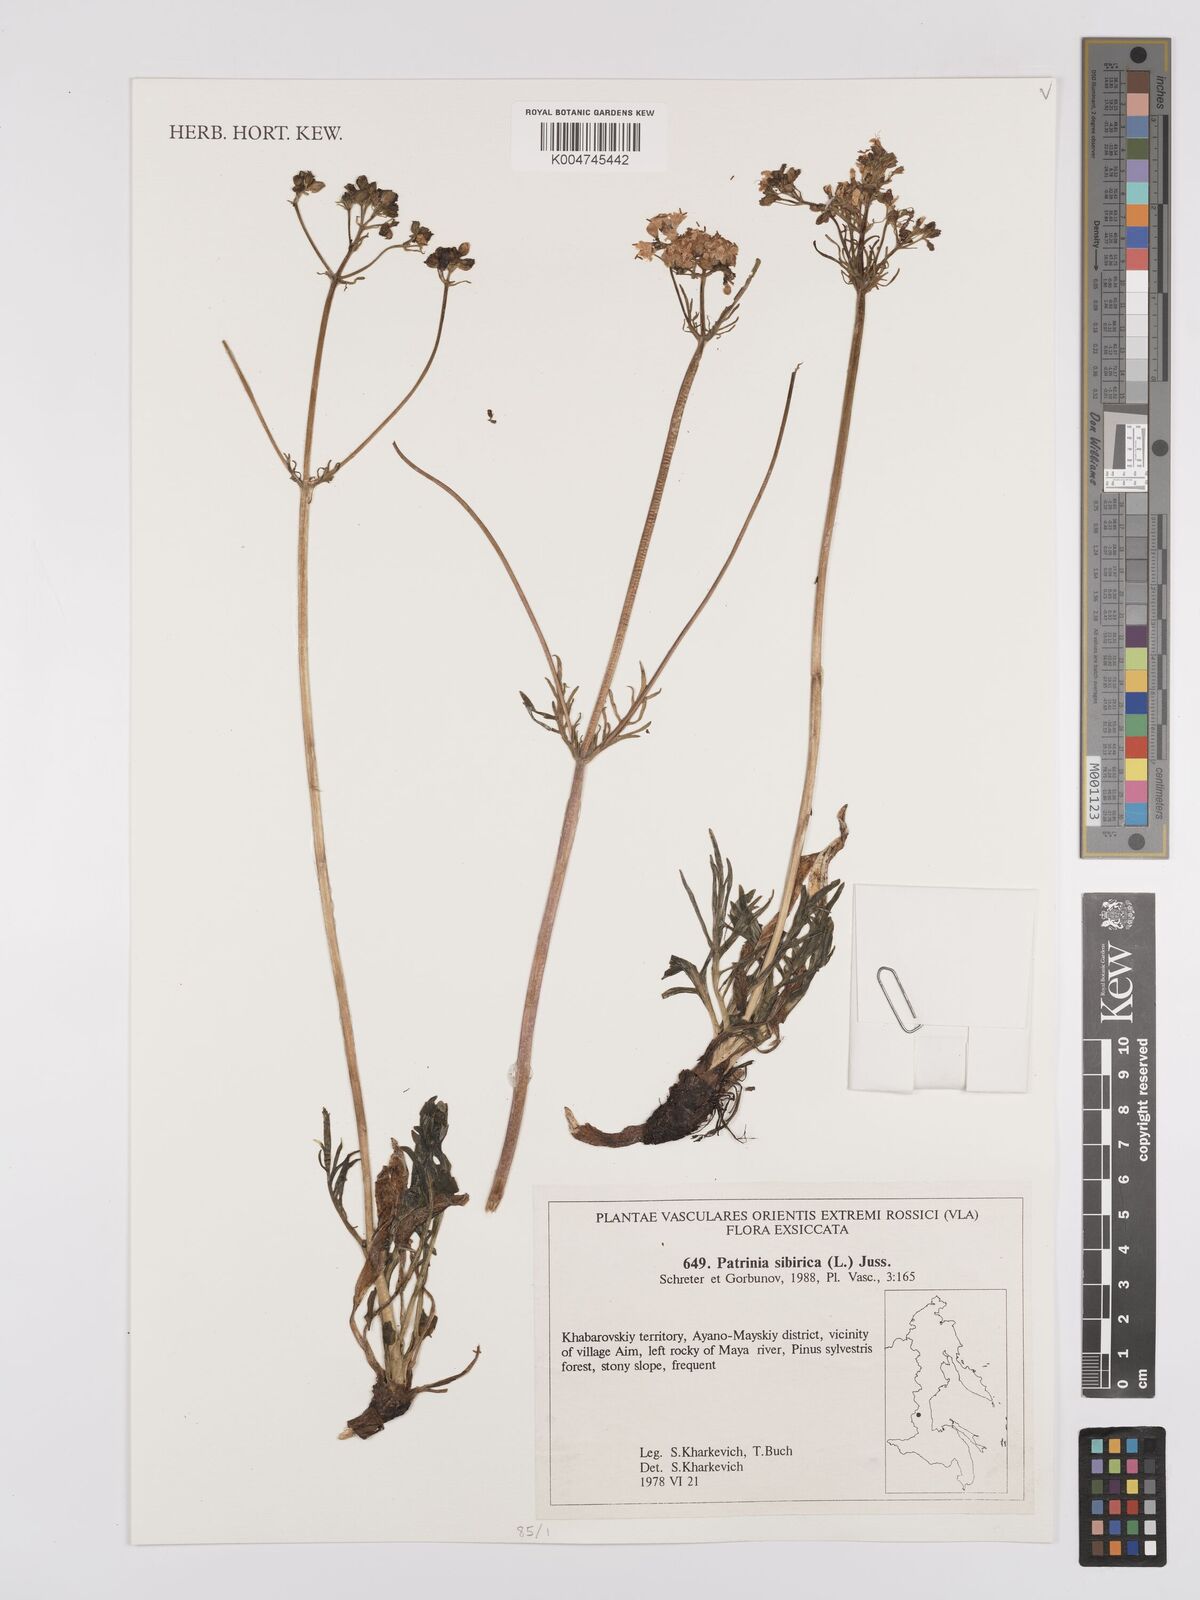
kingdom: Plantae
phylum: Tracheophyta
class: Magnoliopsida
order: Dipsacales
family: Caprifoliaceae
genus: Patrinia
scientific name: Patrinia sibirica
